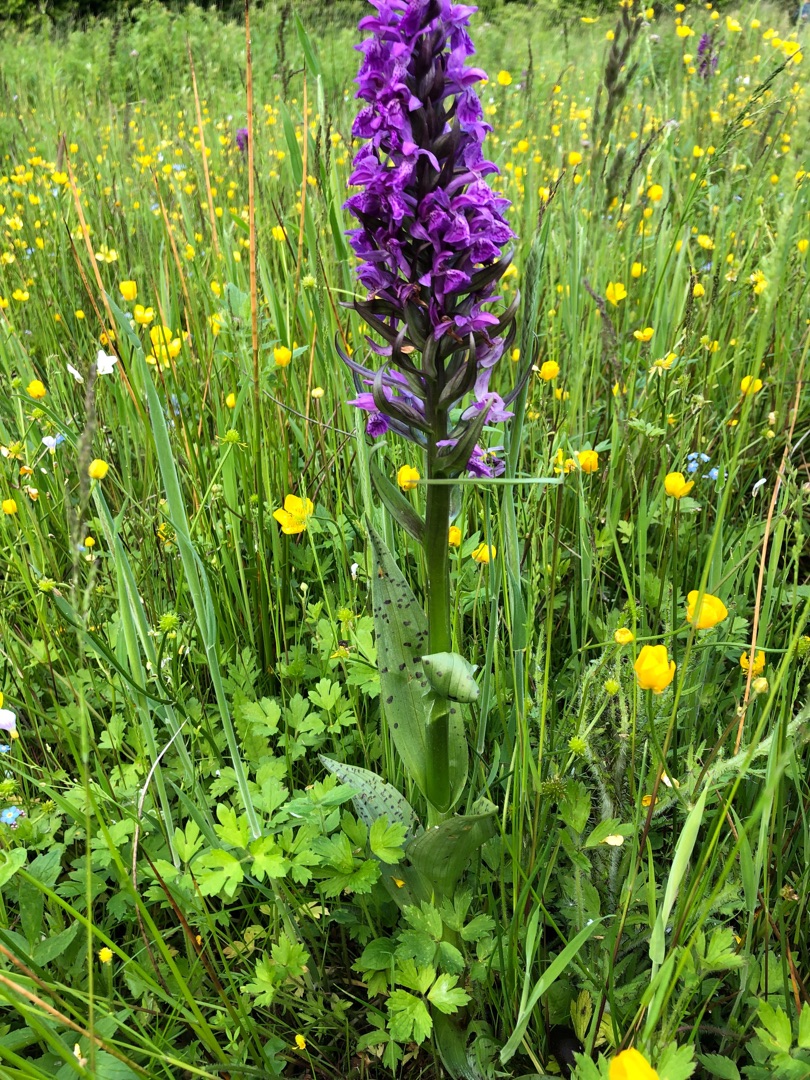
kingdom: Plantae
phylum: Tracheophyta
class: Liliopsida
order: Asparagales
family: Orchidaceae
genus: Dactylorhiza
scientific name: Dactylorhiza majalis
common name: Maj-gøgeurt
